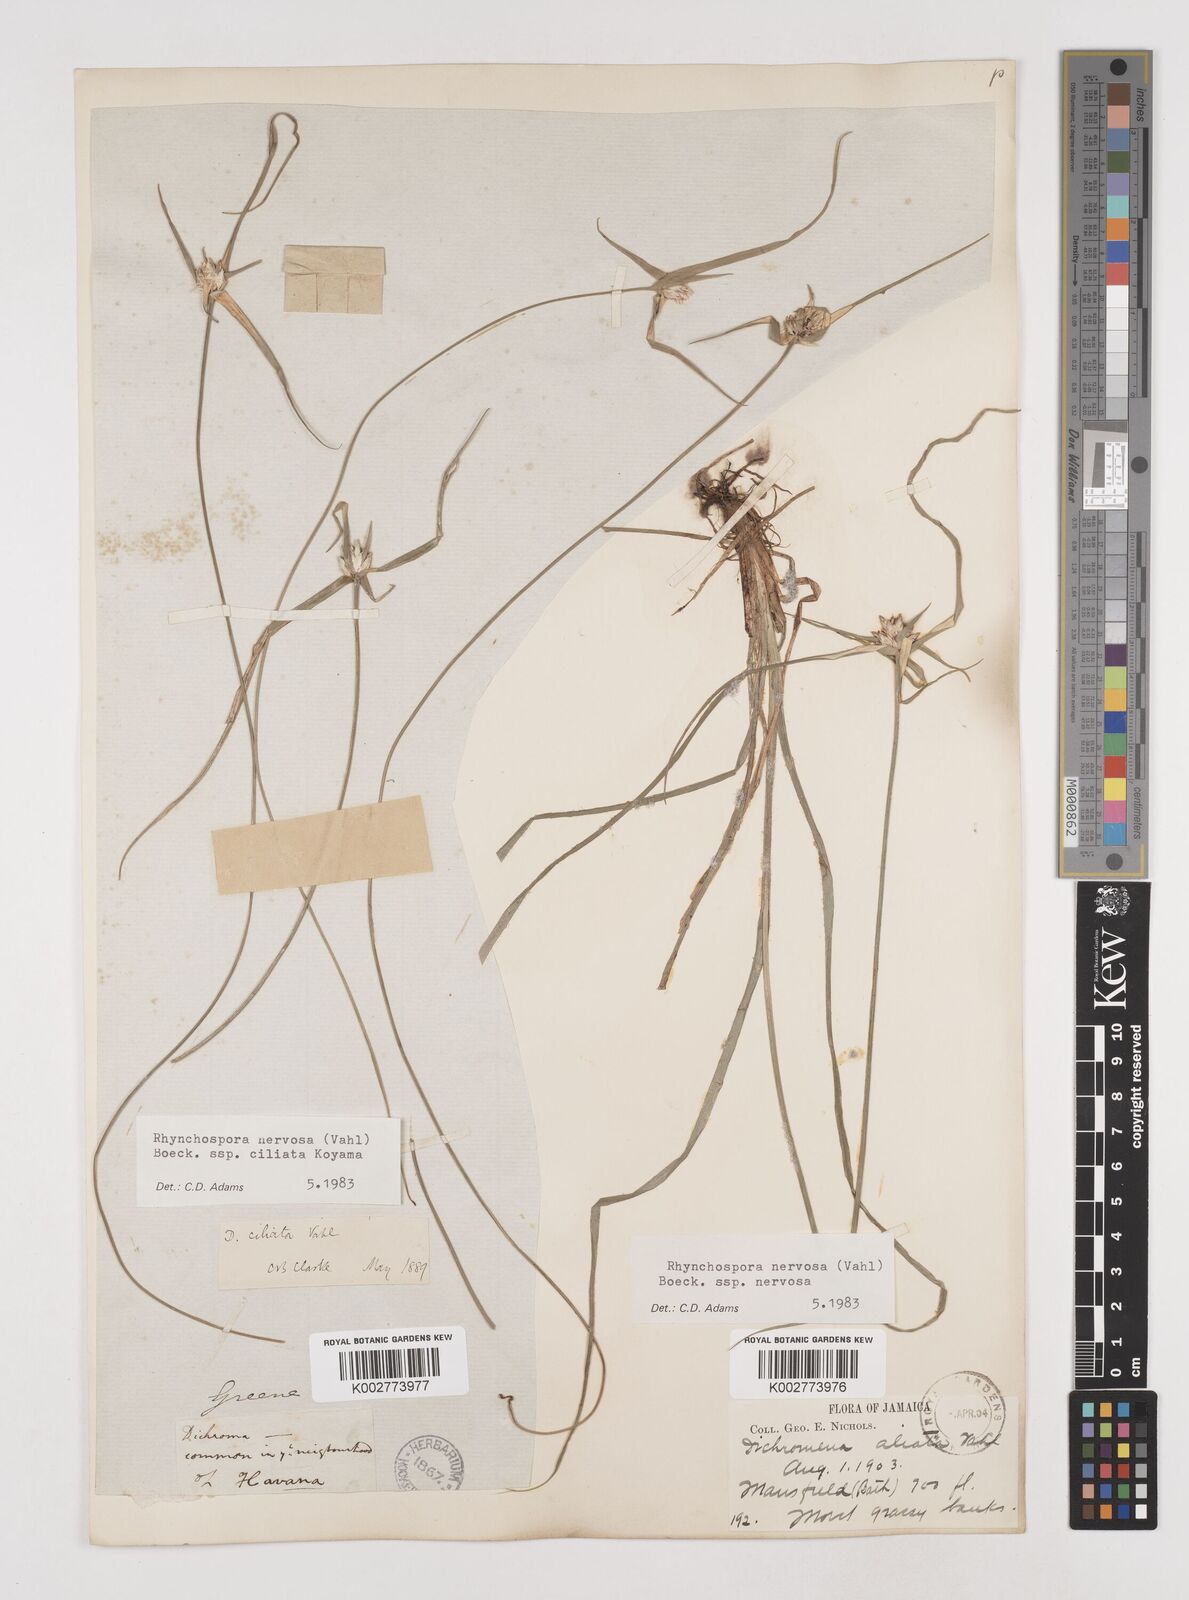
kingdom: Plantae
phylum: Tracheophyta
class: Liliopsida
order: Poales
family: Cyperaceae
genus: Rhynchospora
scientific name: Rhynchospora pura
